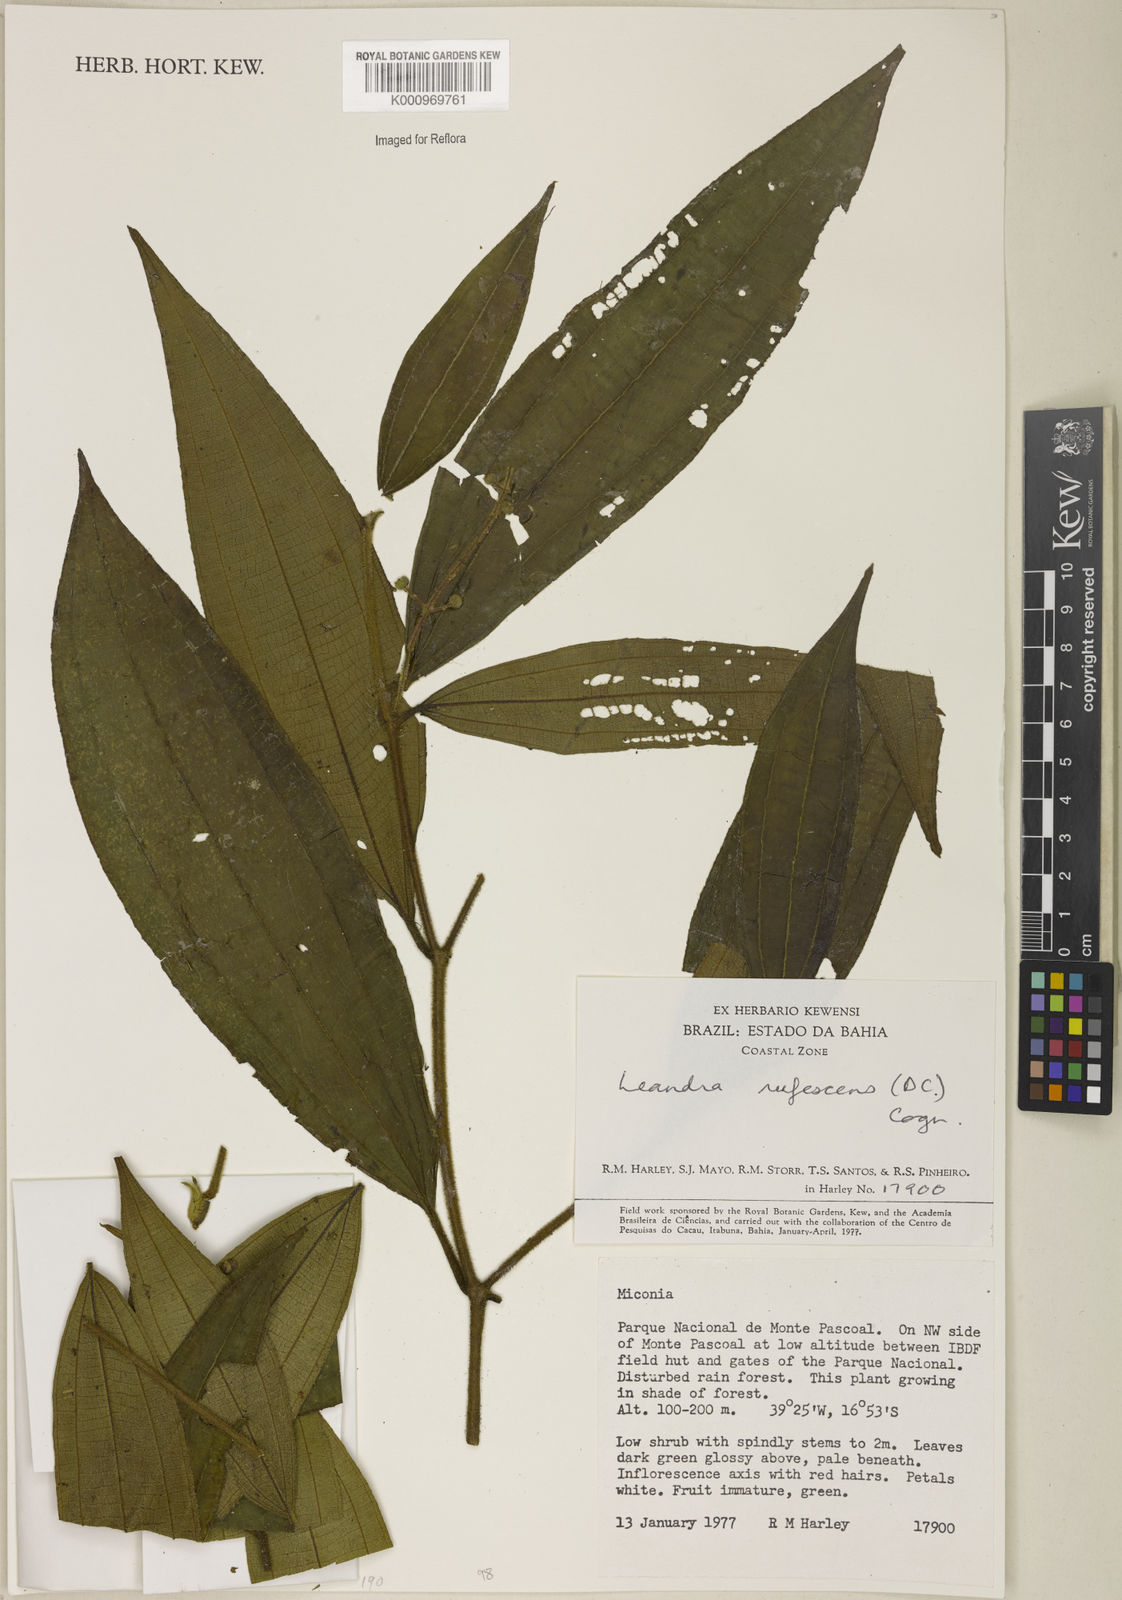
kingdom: Plantae
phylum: Tracheophyta
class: Magnoliopsida
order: Myrtales
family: Melastomataceae
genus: Miconia
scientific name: Miconia asperiuscula
